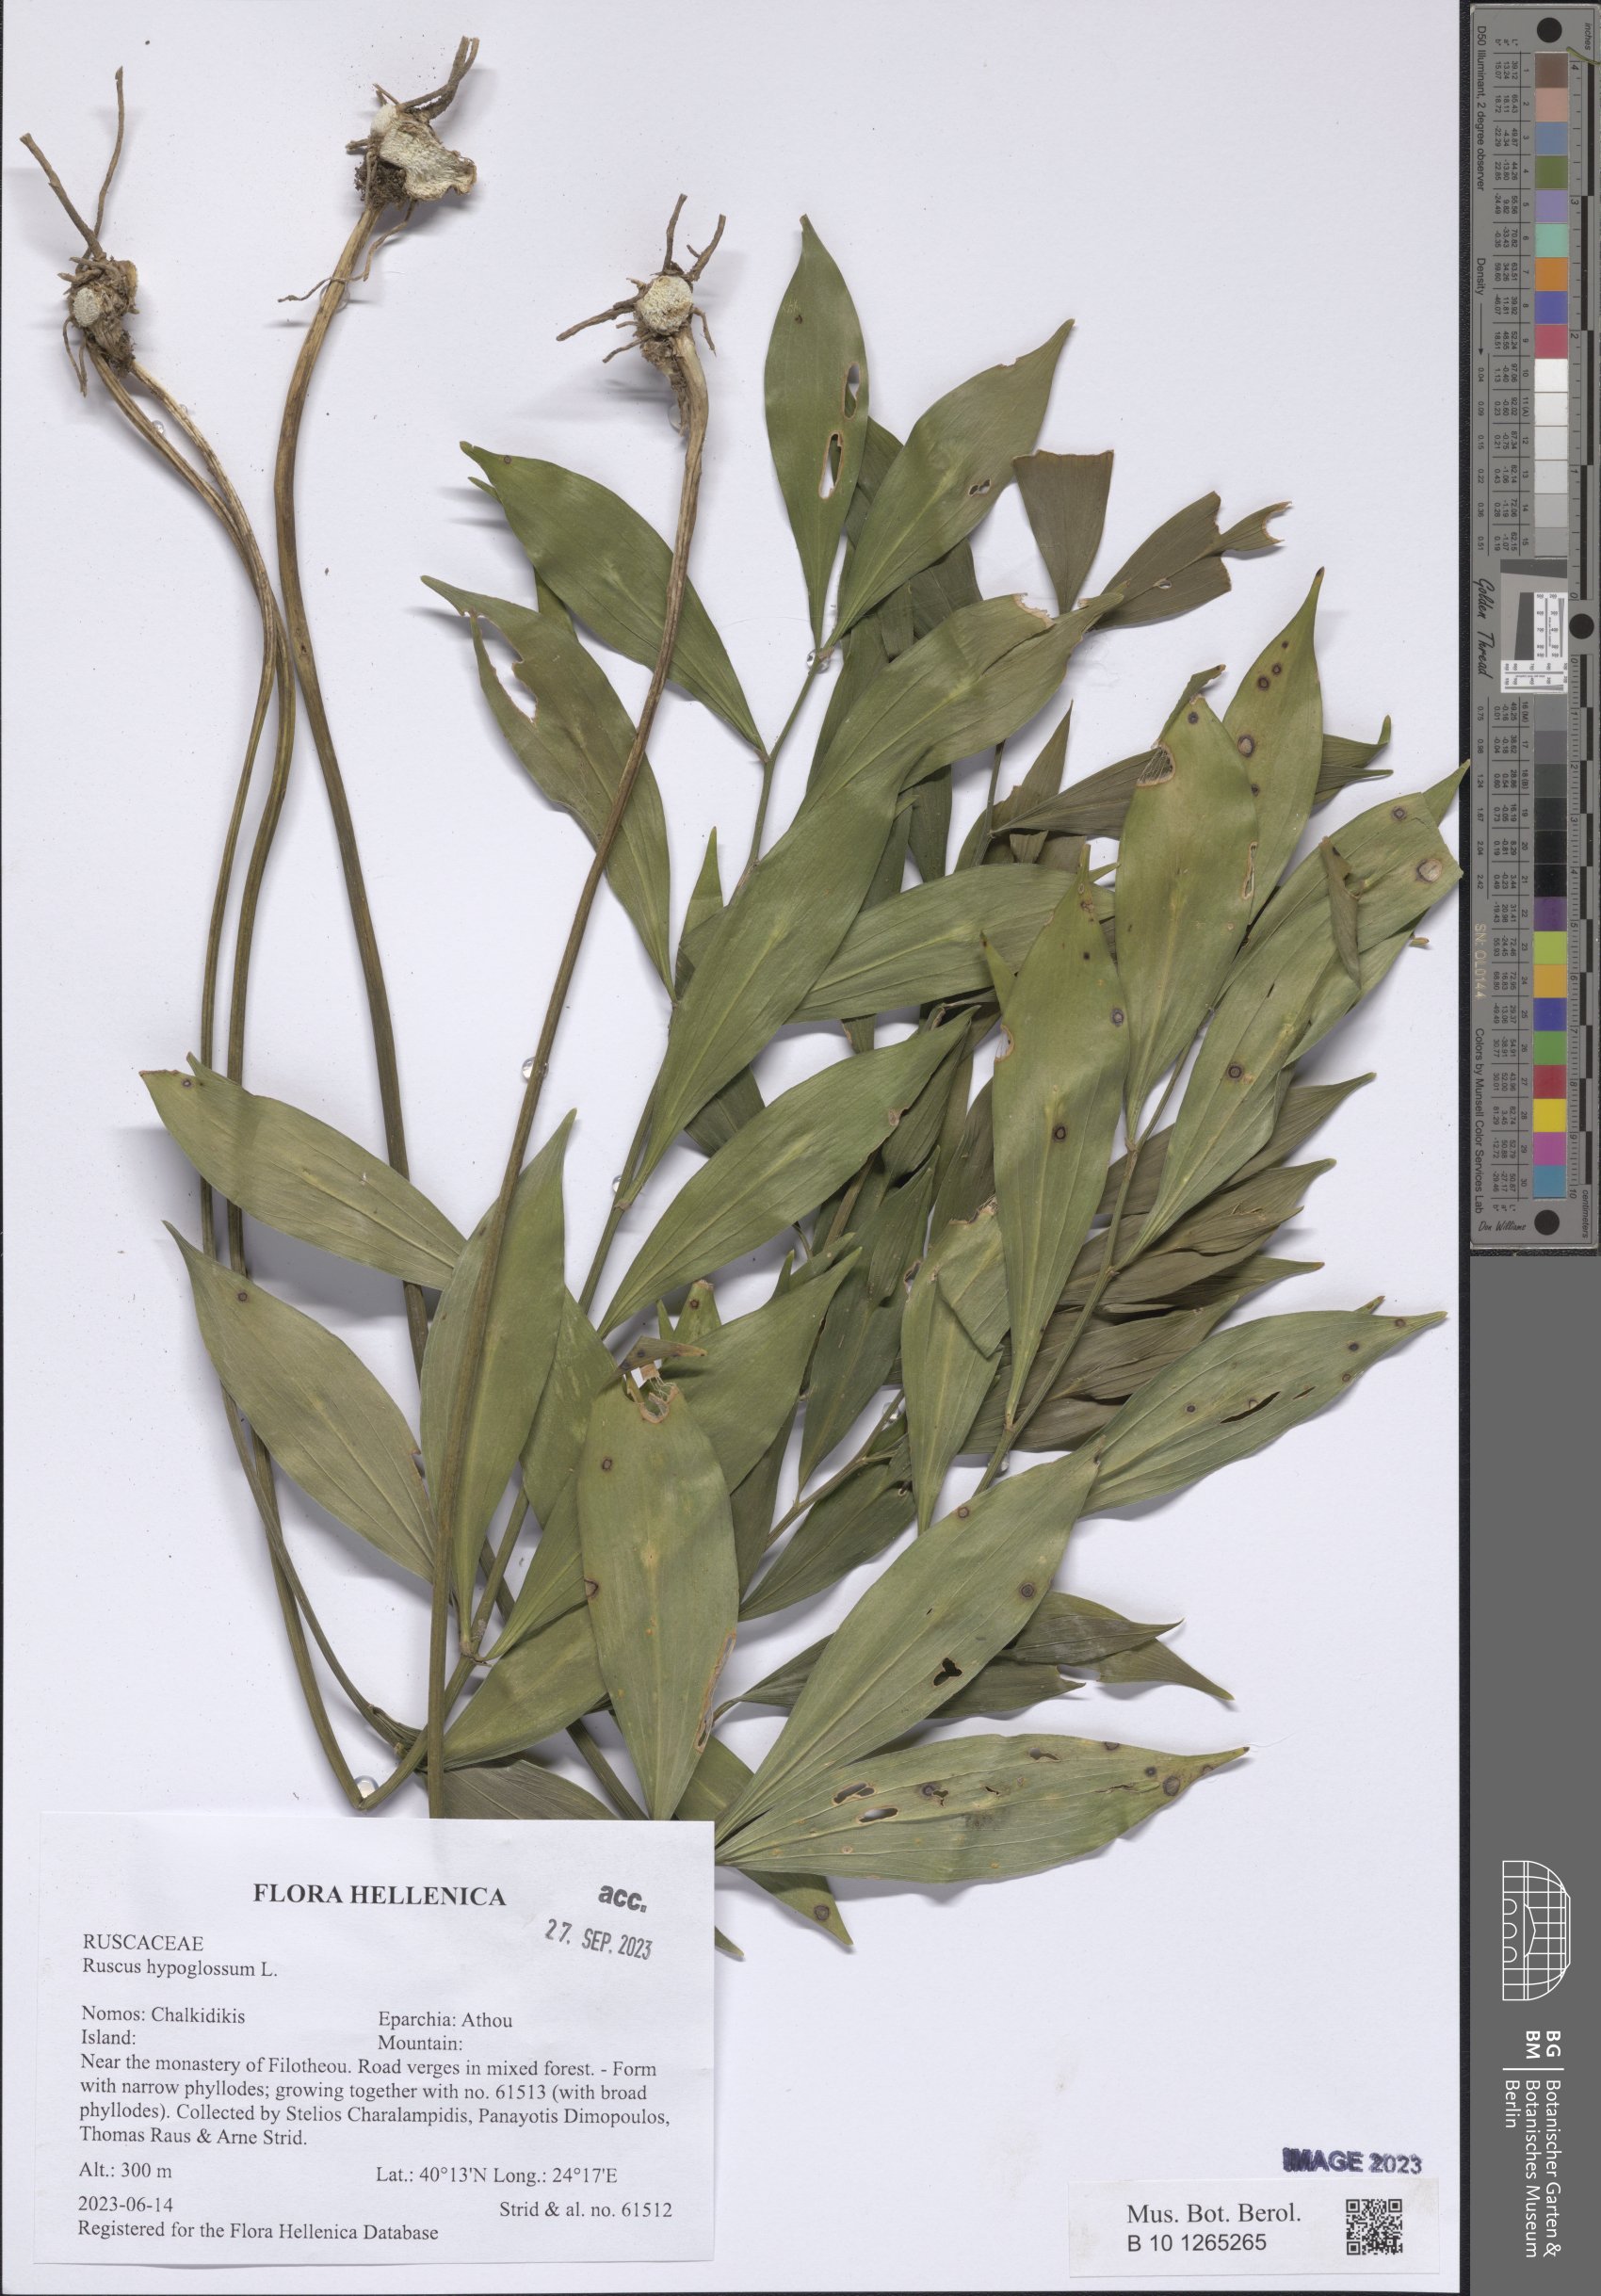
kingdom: Plantae
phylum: Tracheophyta
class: Liliopsida
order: Asparagales
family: Asparagaceae
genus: Ruscus
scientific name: Ruscus hypoglossum
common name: Spineless butcher's-broom
